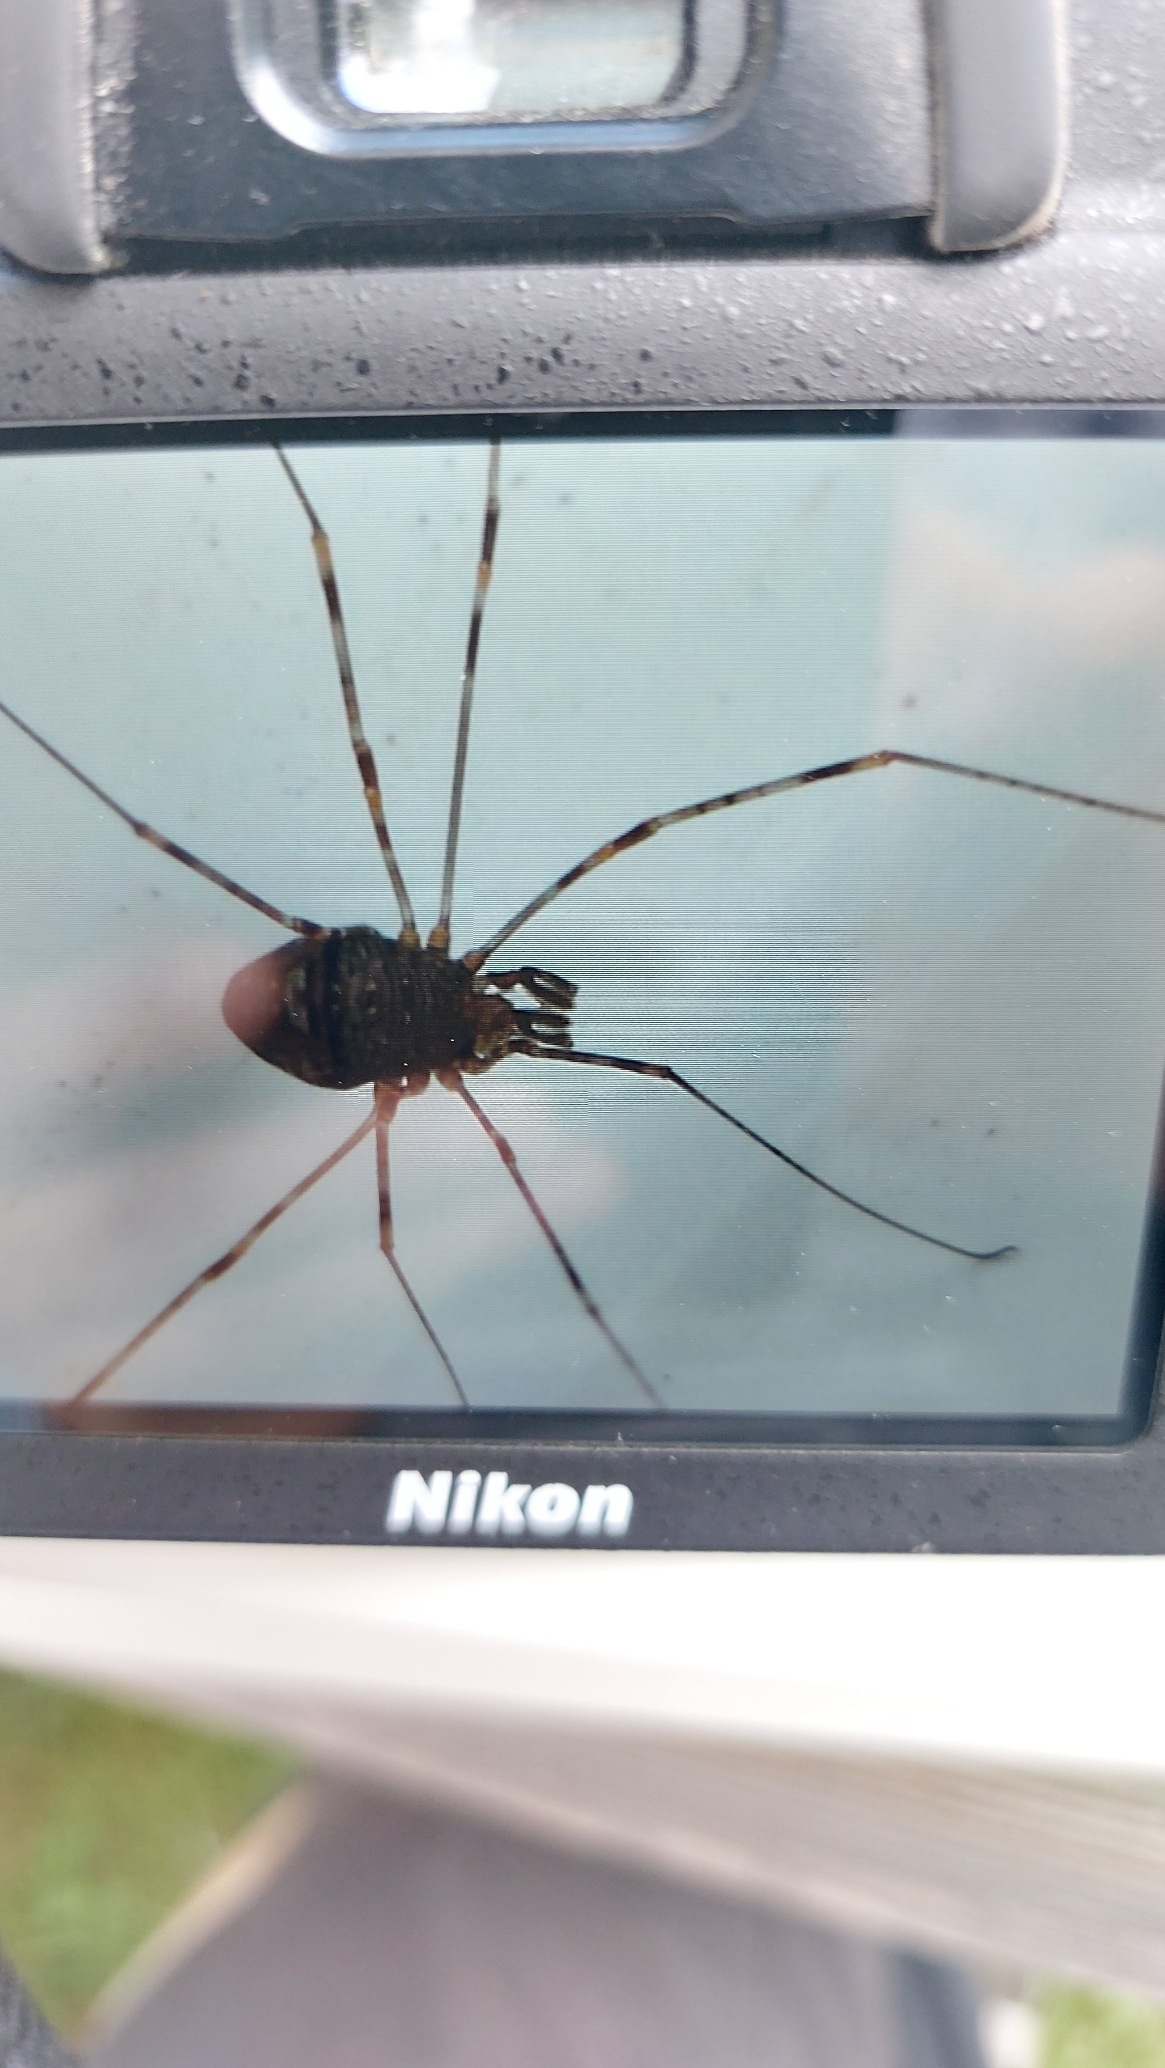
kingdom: Animalia
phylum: Arthropoda
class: Arachnida
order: Opiliones
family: Phalangiidae
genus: Dicranopalpus
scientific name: Dicranopalpus ramosus
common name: Gaffelmejer
